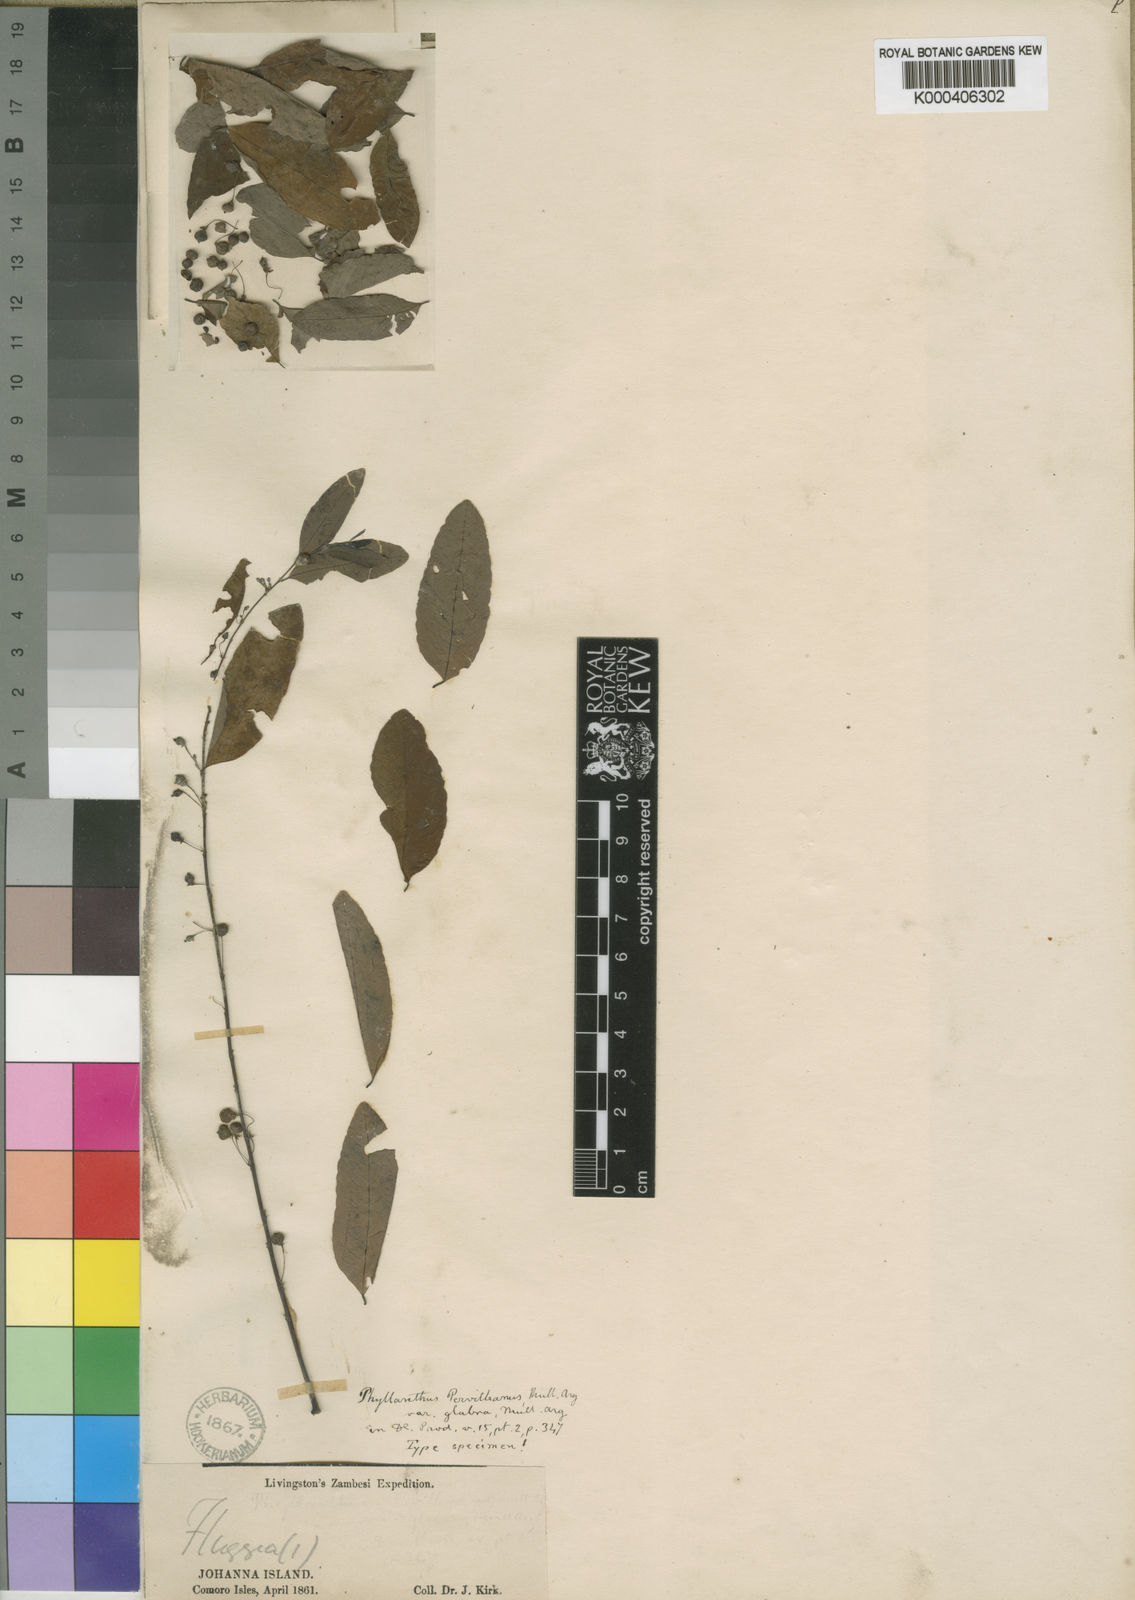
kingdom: Plantae
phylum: Tracheophyta
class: Magnoliopsida
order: Malpighiales
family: Phyllanthaceae
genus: Phyllanthus
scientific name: Phyllanthus
